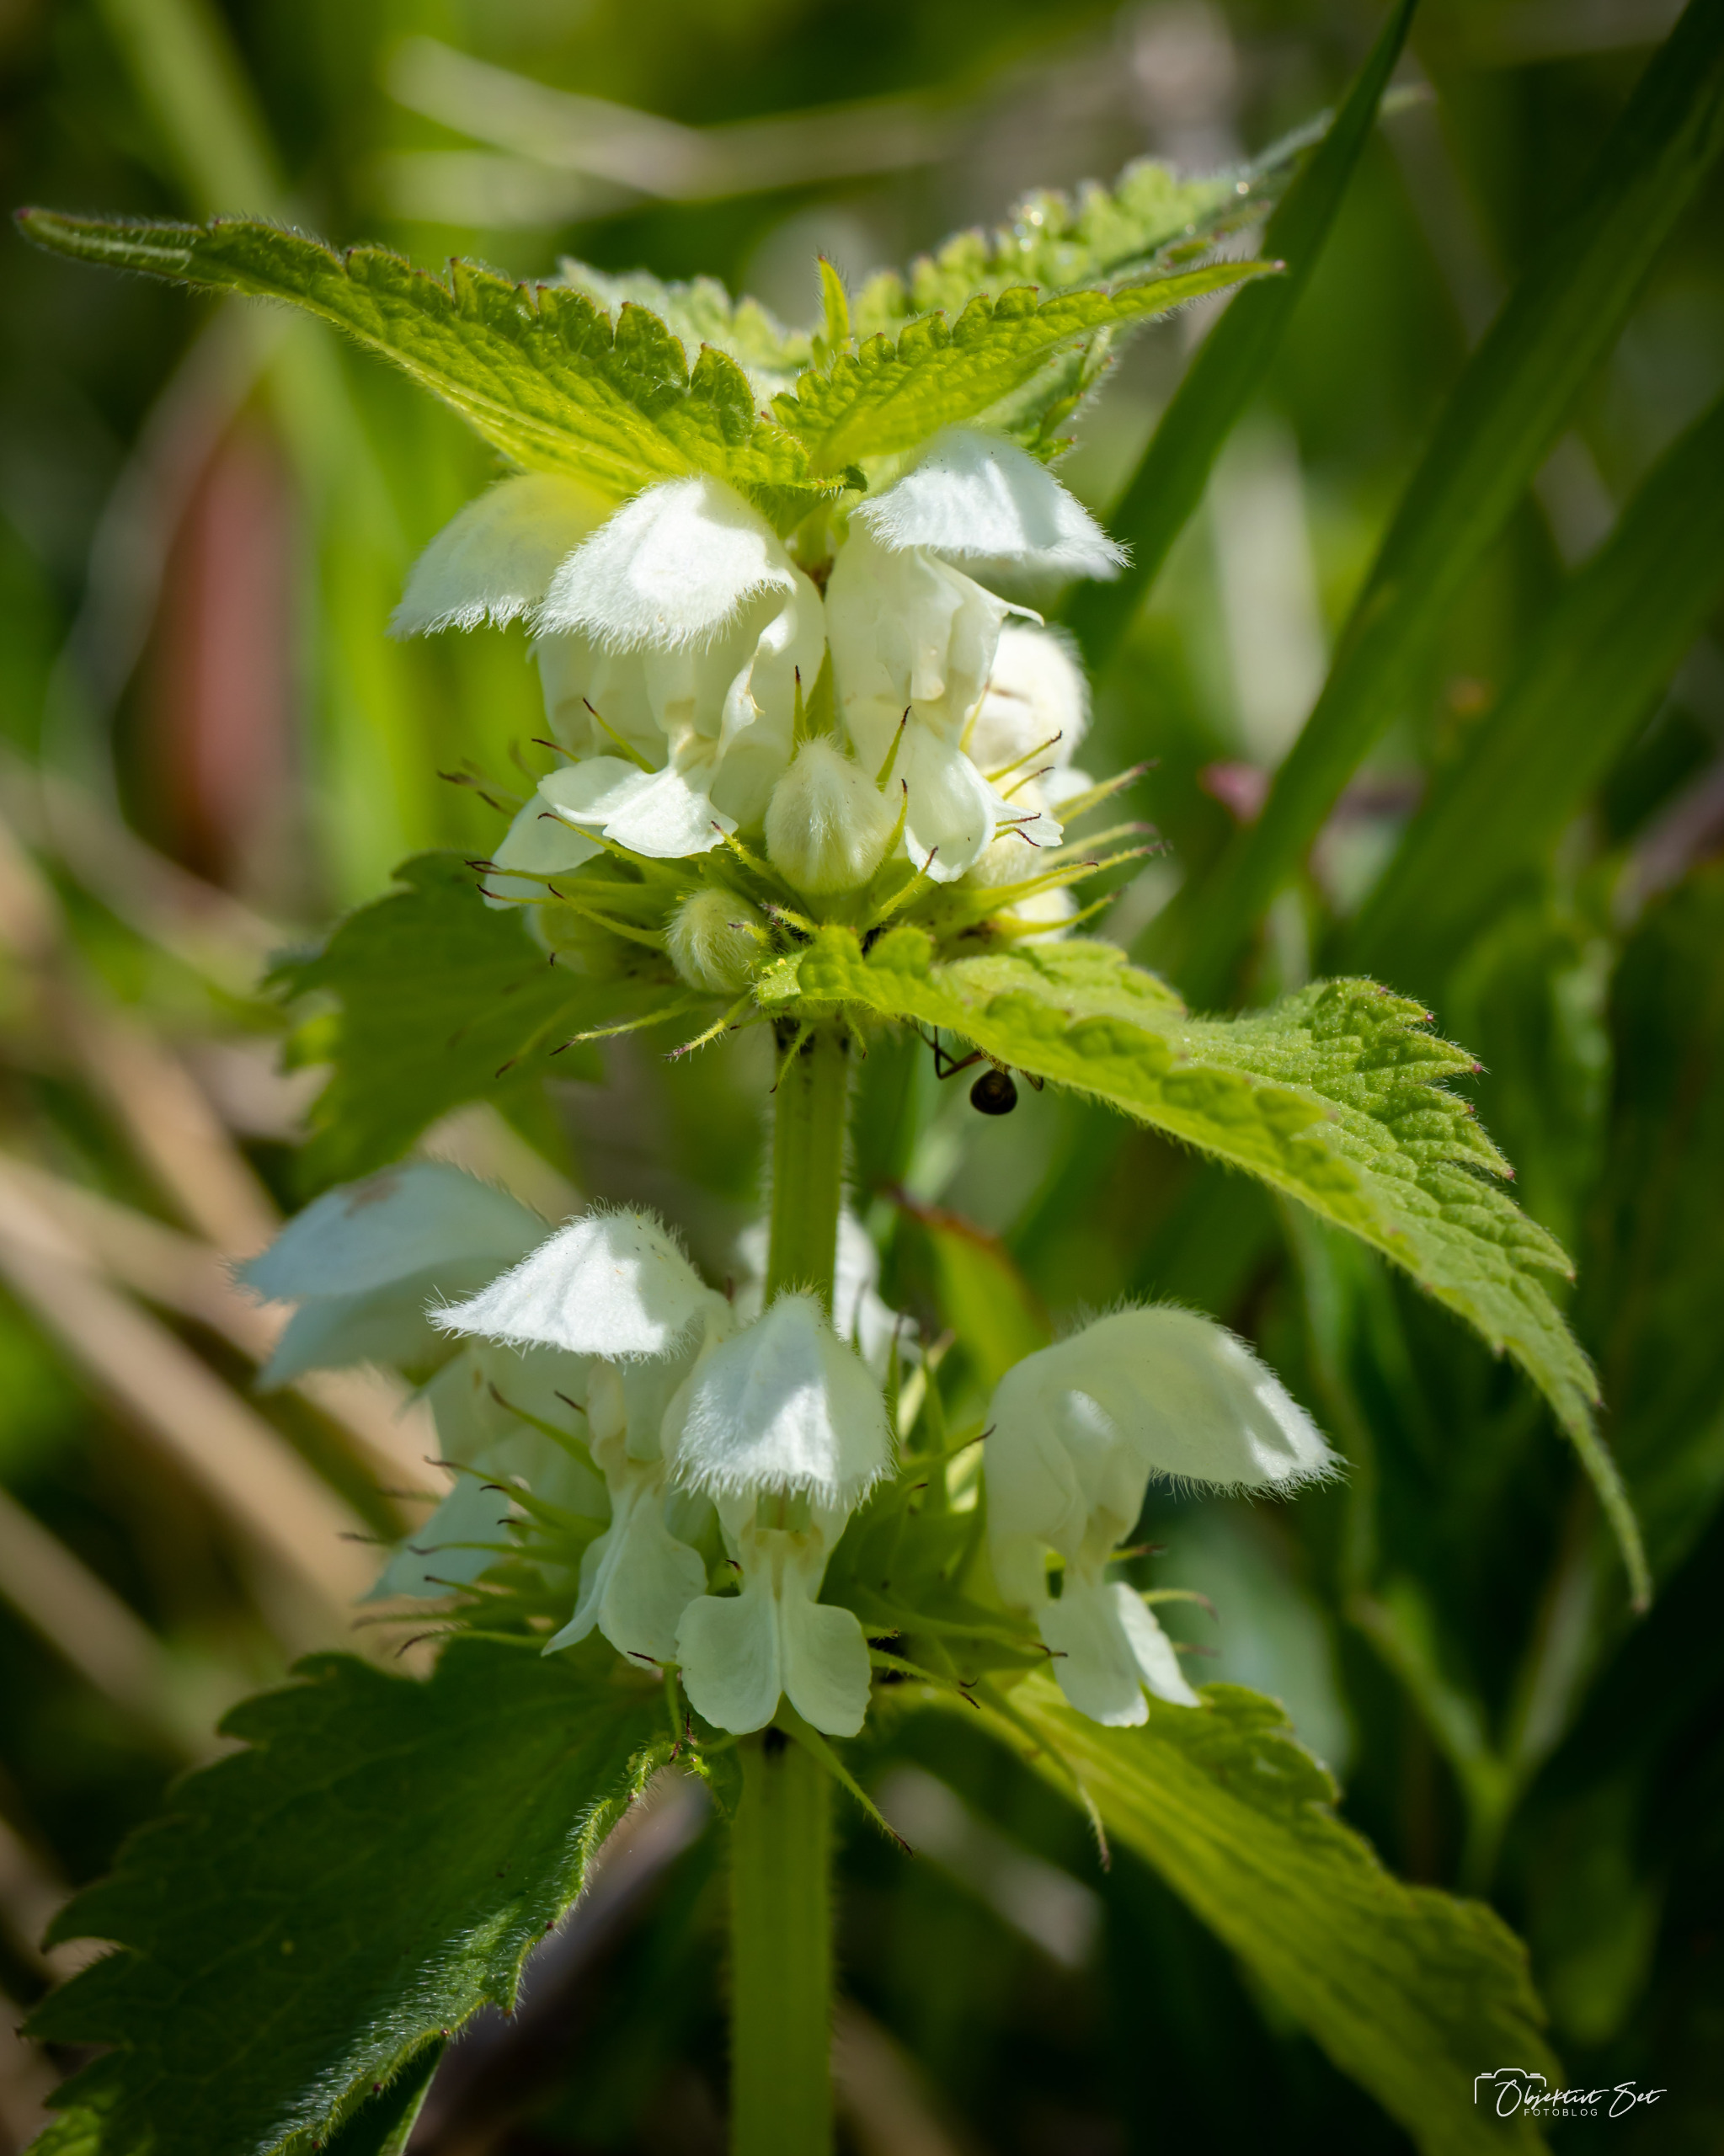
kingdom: Plantae
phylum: Tracheophyta
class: Magnoliopsida
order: Lamiales
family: Lamiaceae
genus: Lamium
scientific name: Lamium album
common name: Døvnælde
